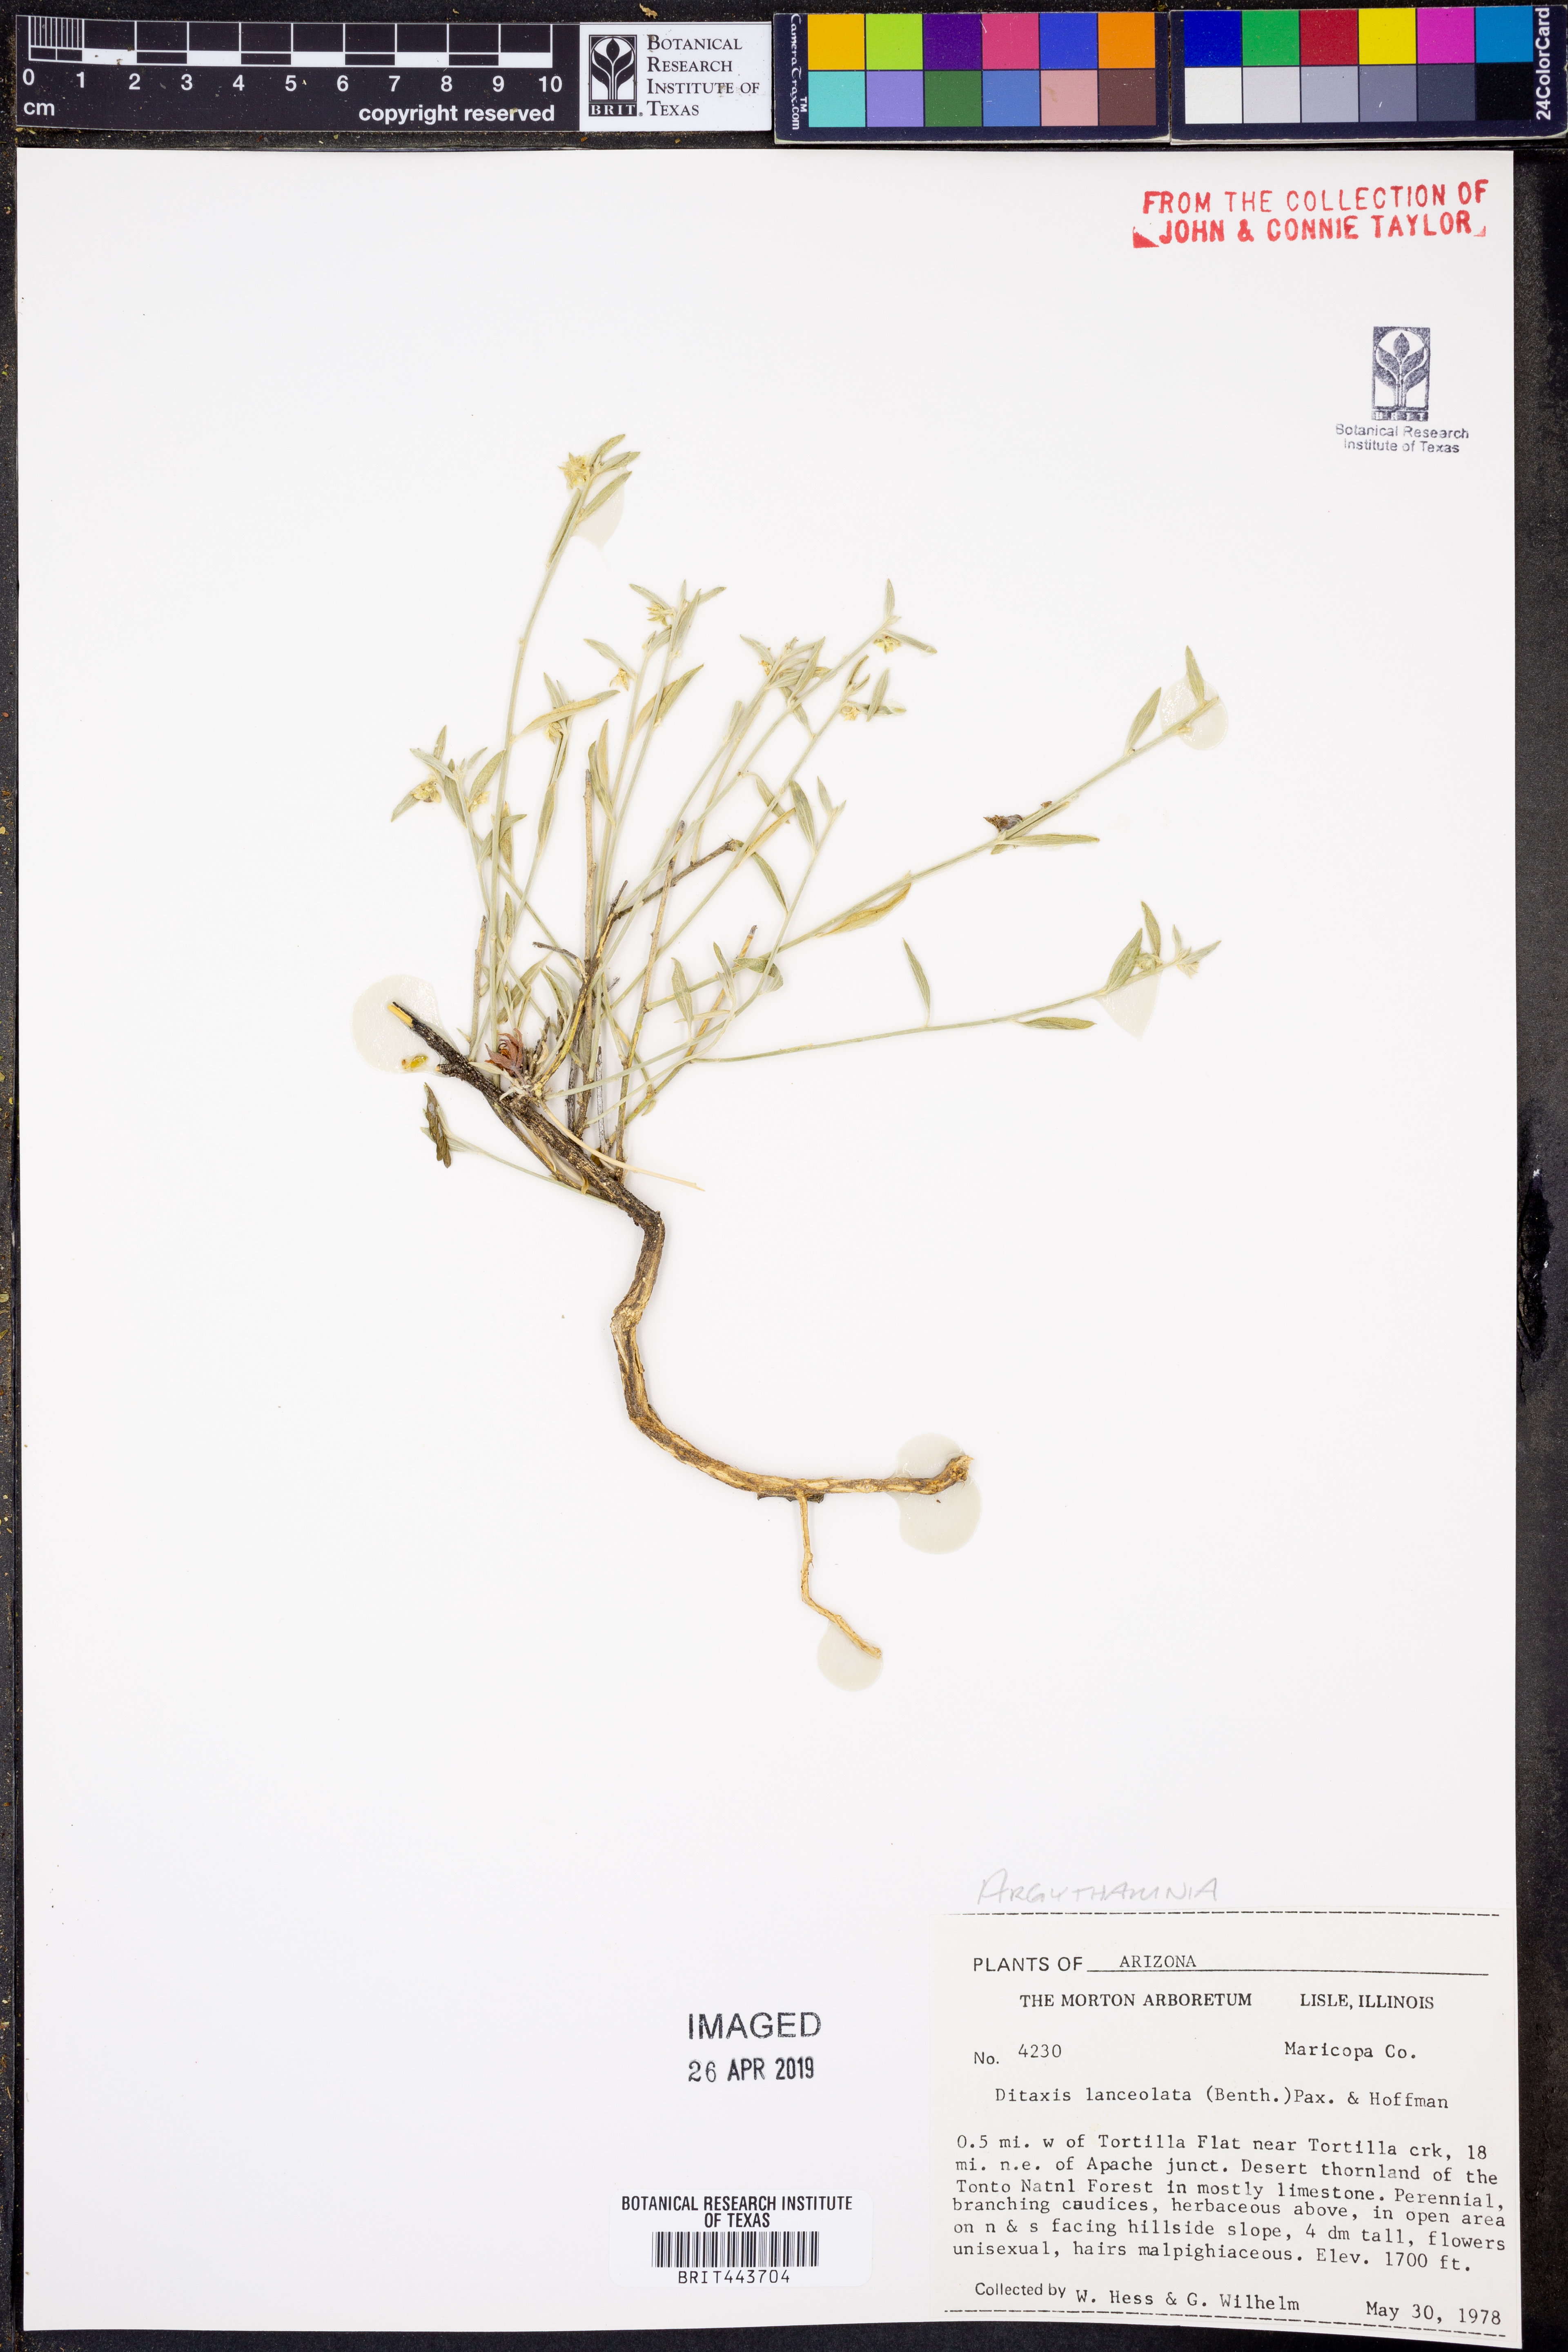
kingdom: Plantae
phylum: Tracheophyta
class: Magnoliopsida
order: Malpighiales
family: Euphorbiaceae
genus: Ditaxis
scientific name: Ditaxis lanceolata
